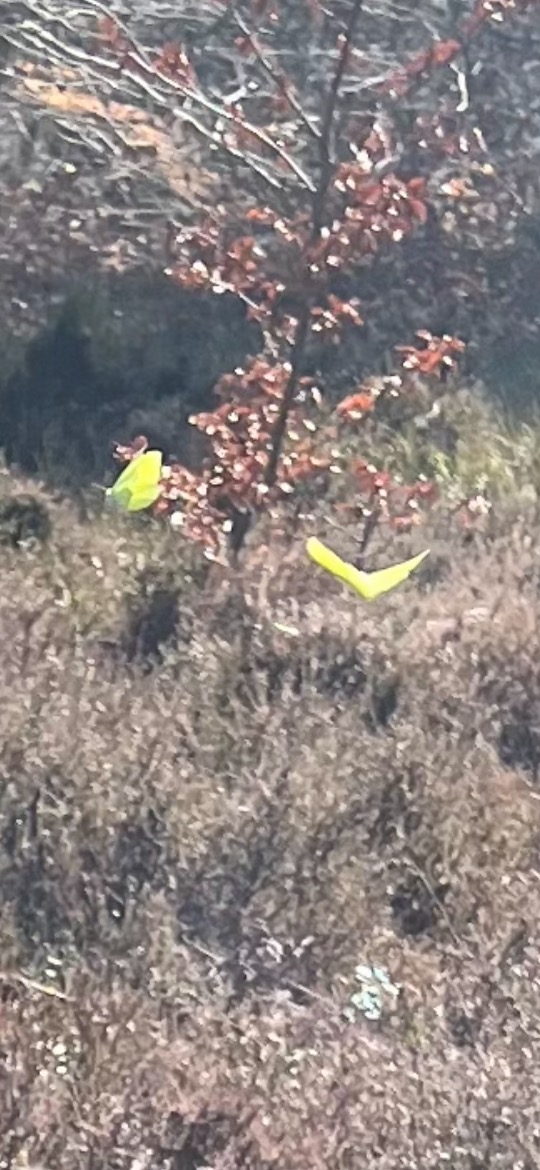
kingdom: Animalia
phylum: Arthropoda
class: Insecta
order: Lepidoptera
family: Pieridae
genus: Gonepteryx
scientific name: Gonepteryx rhamni
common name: Citronsommerfugl
